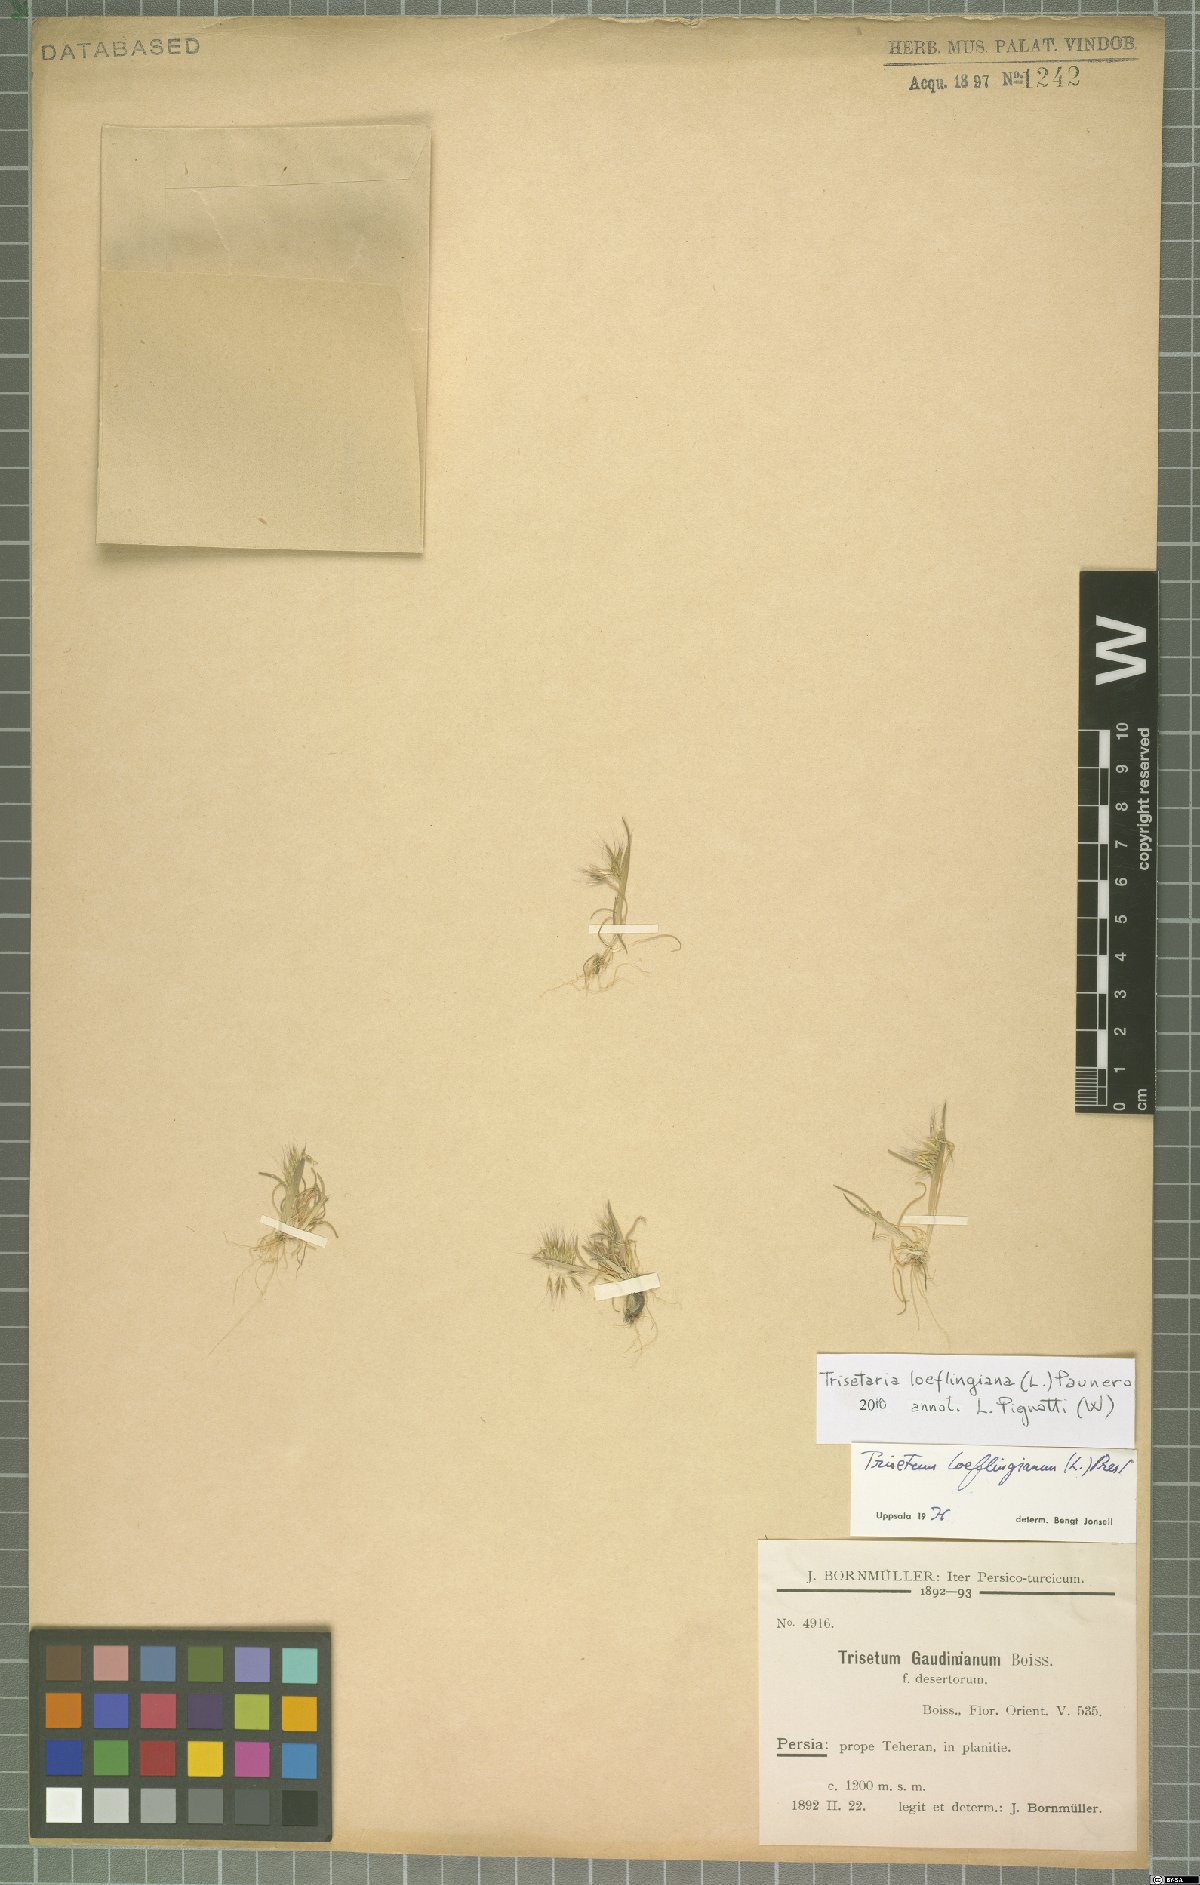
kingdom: Plantae
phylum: Tracheophyta
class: Liliopsida
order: Poales
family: Poaceae
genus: Trisetaria
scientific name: Trisetaria loeflingiana
